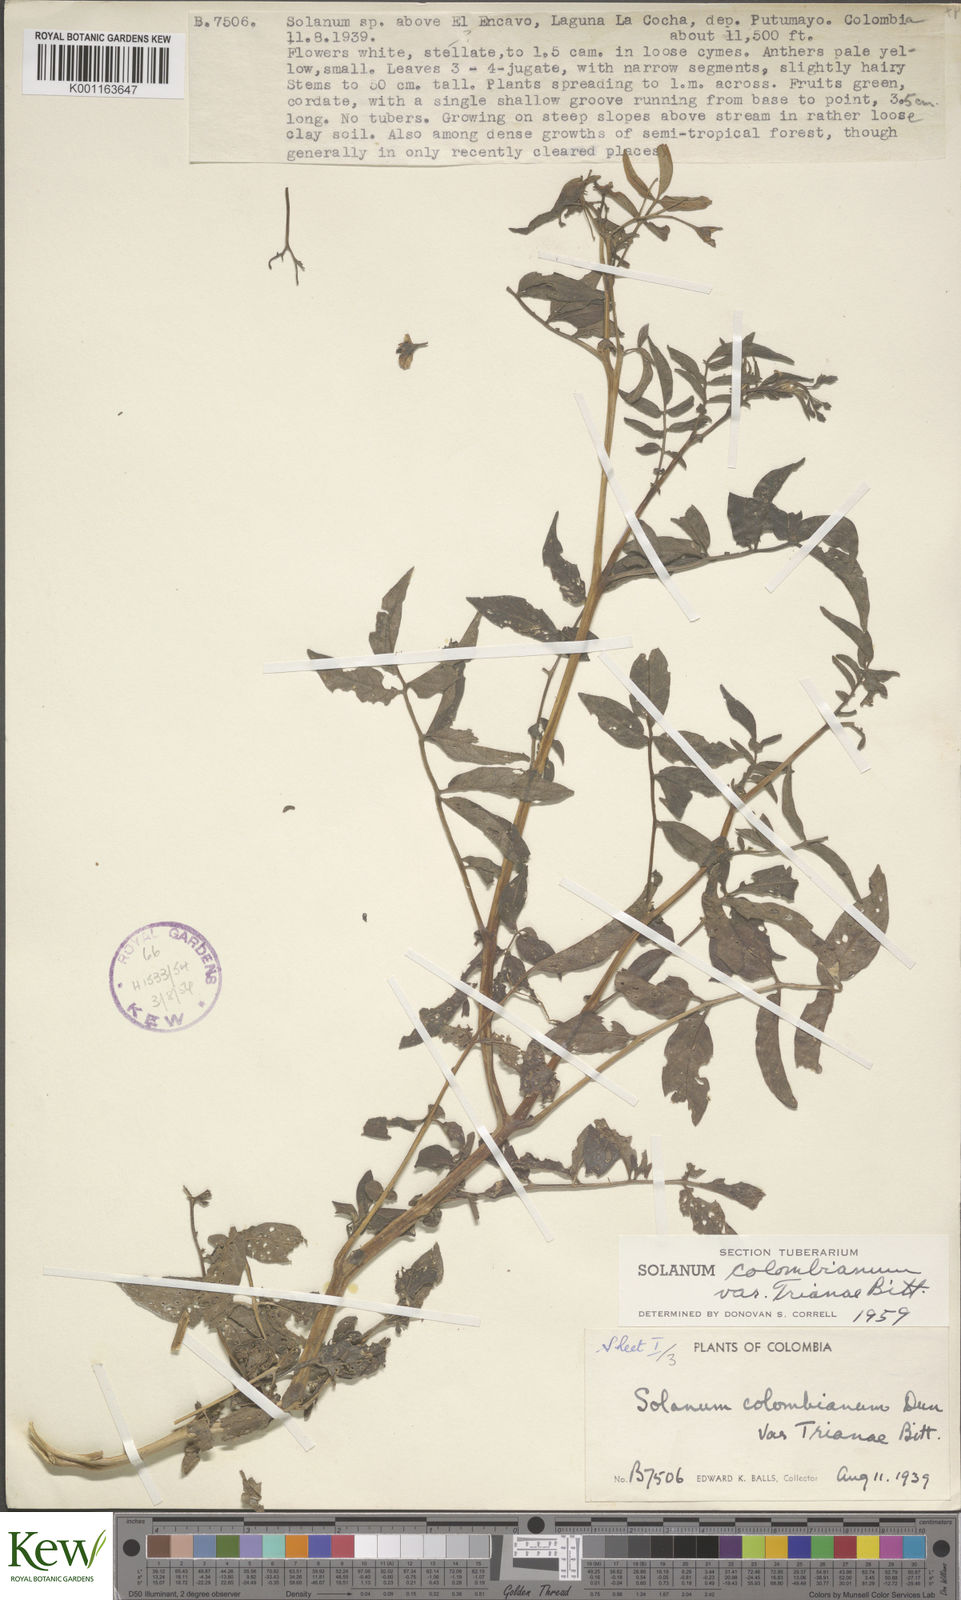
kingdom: Plantae
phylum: Tracheophyta
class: Magnoliopsida
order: Solanales
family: Solanaceae
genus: Solanum
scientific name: Solanum colombianum
